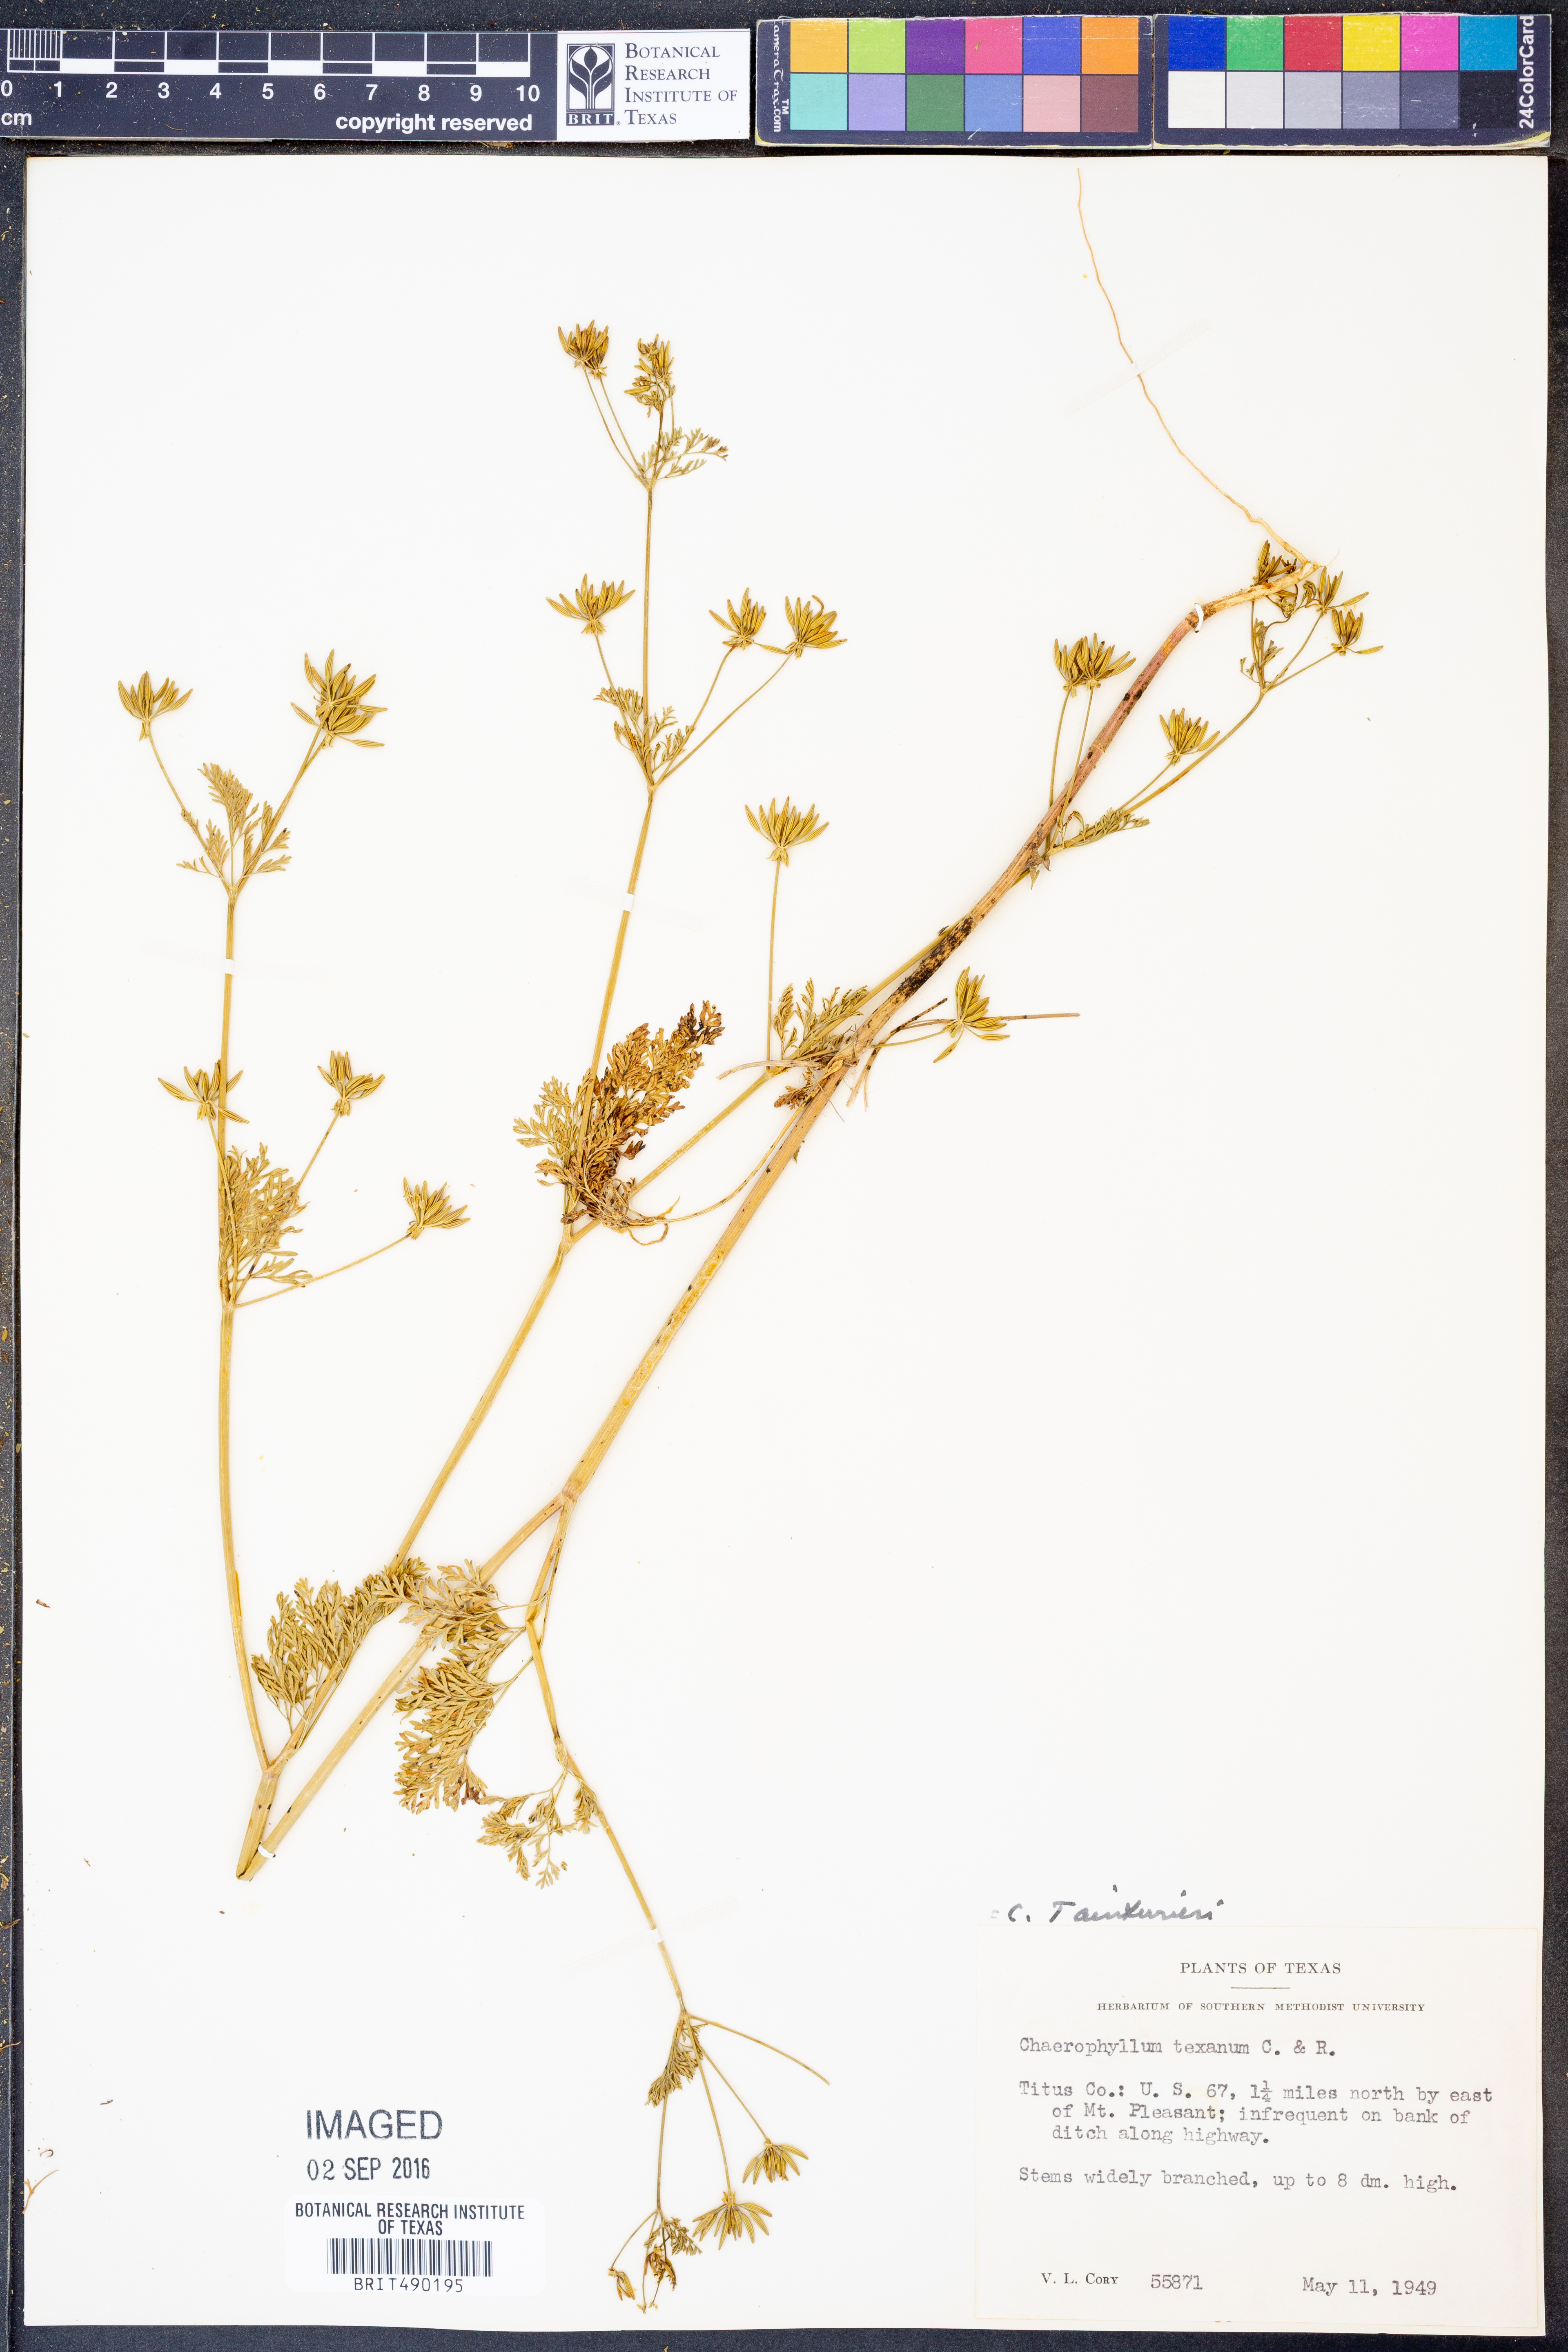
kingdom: Plantae
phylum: Tracheophyta
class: Magnoliopsida
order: Apiales
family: Apiaceae
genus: Chaerophyllum
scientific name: Chaerophyllum tainturieri
